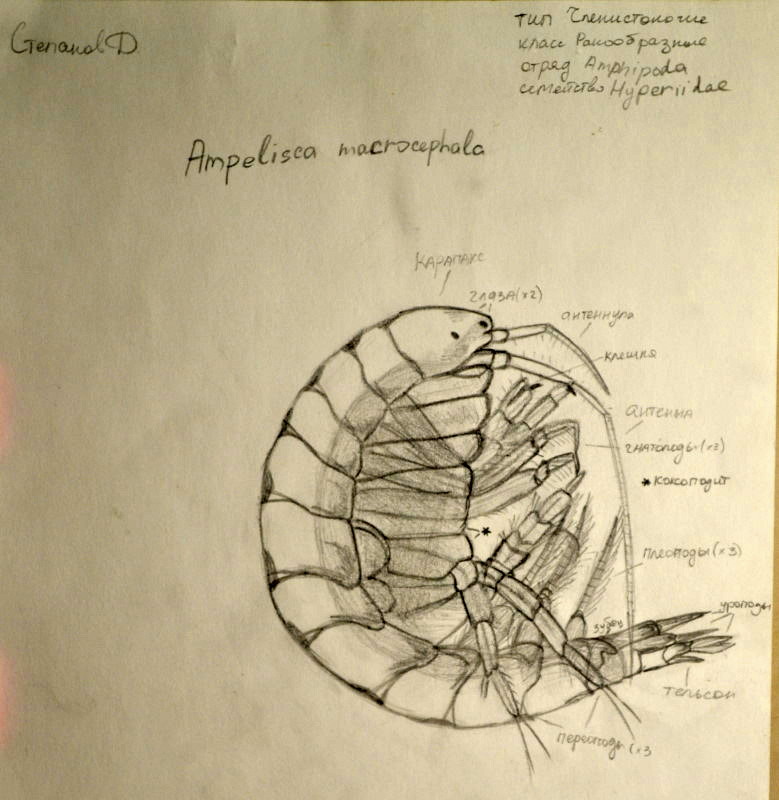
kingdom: Animalia
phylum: Arthropoda
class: Malacostraca
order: Amphipoda
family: Ampeliscidae
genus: Ampelisca
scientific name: Ampelisca macrocephala
